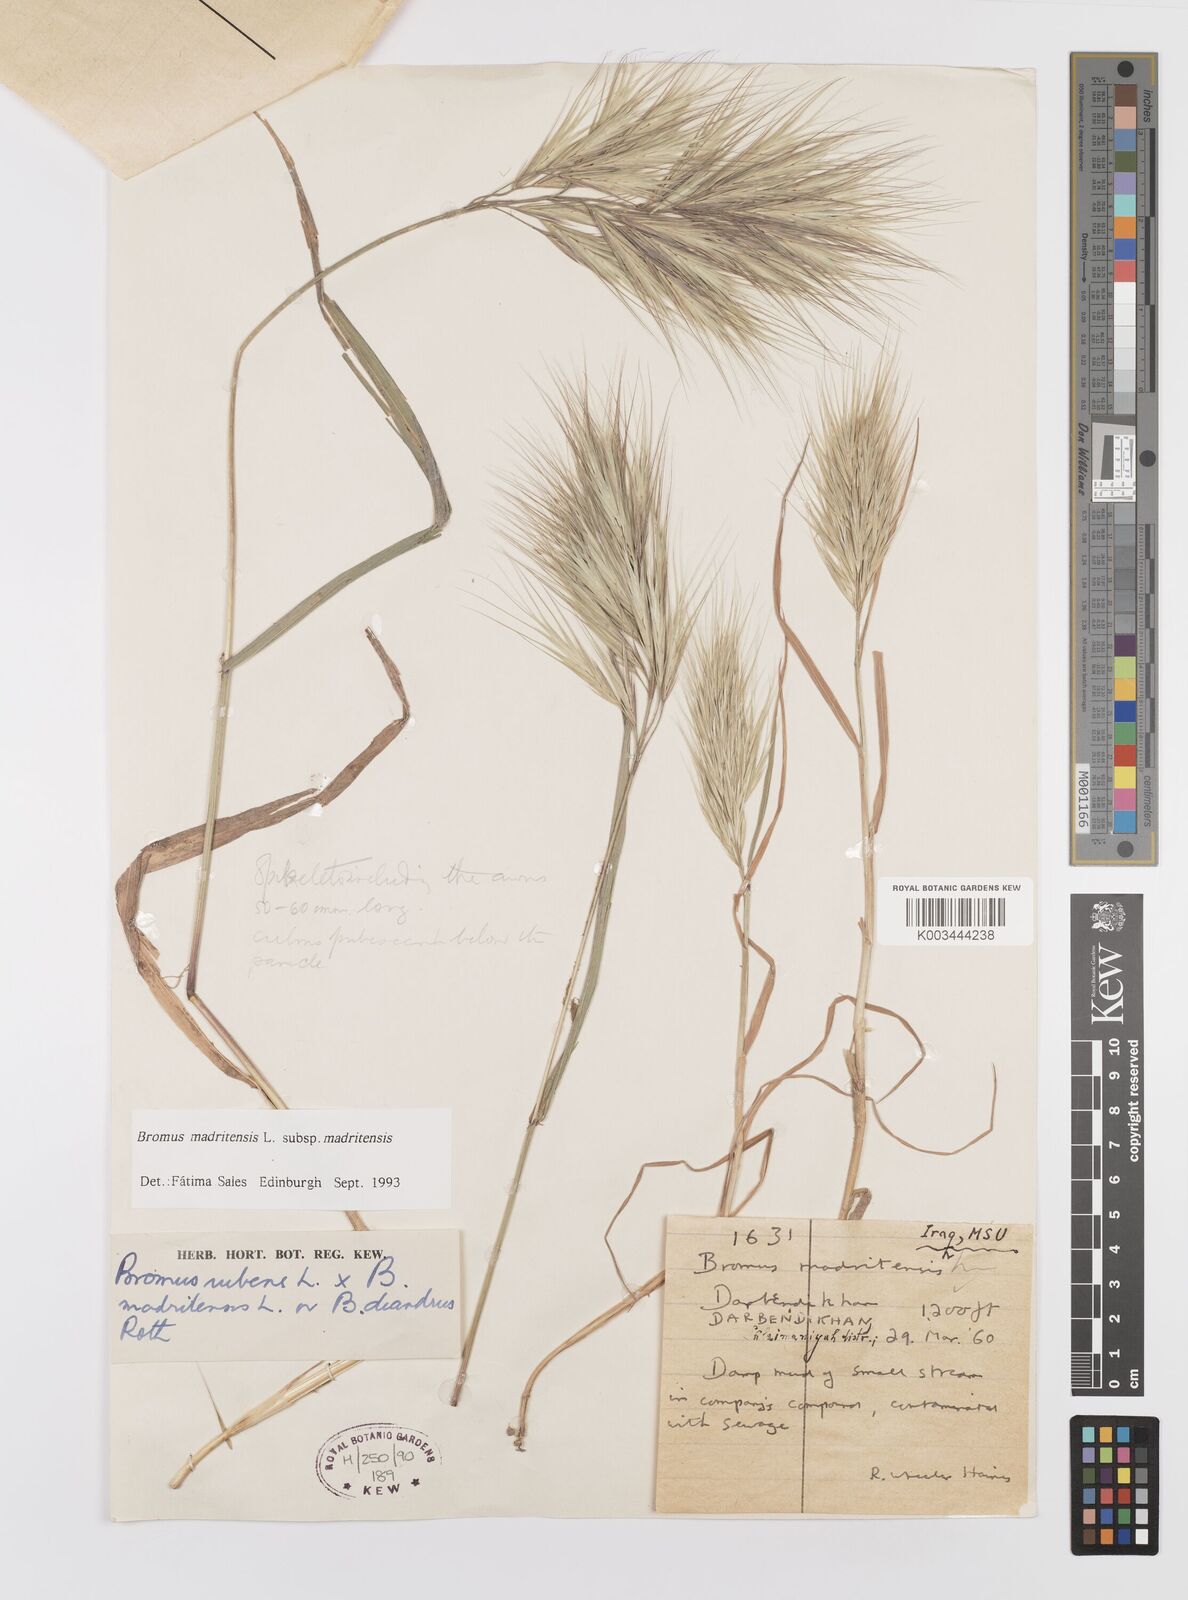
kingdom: Plantae
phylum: Tracheophyta
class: Liliopsida
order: Poales
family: Poaceae
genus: Bromus
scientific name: Bromus madritensis
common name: Compact brome
